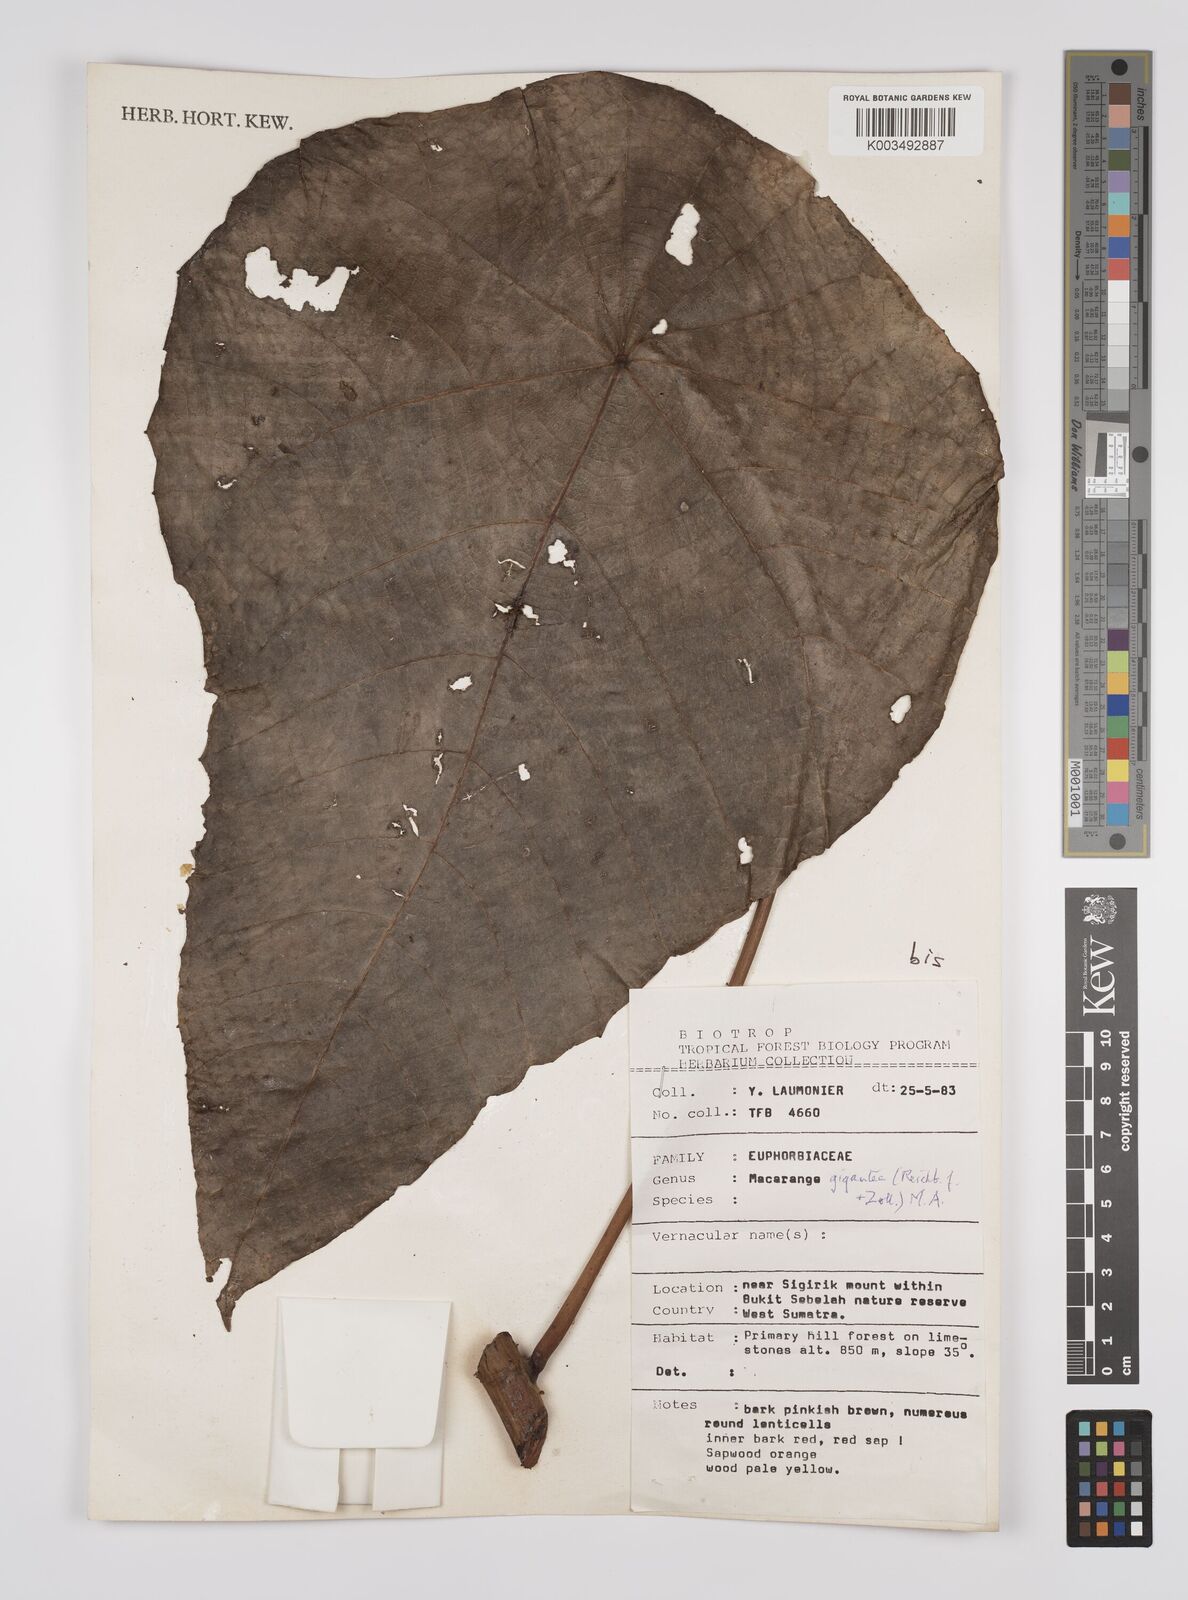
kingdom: Plantae
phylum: Tracheophyta
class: Magnoliopsida
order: Malpighiales
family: Euphorbiaceae
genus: Macaranga
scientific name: Macaranga gigantea
